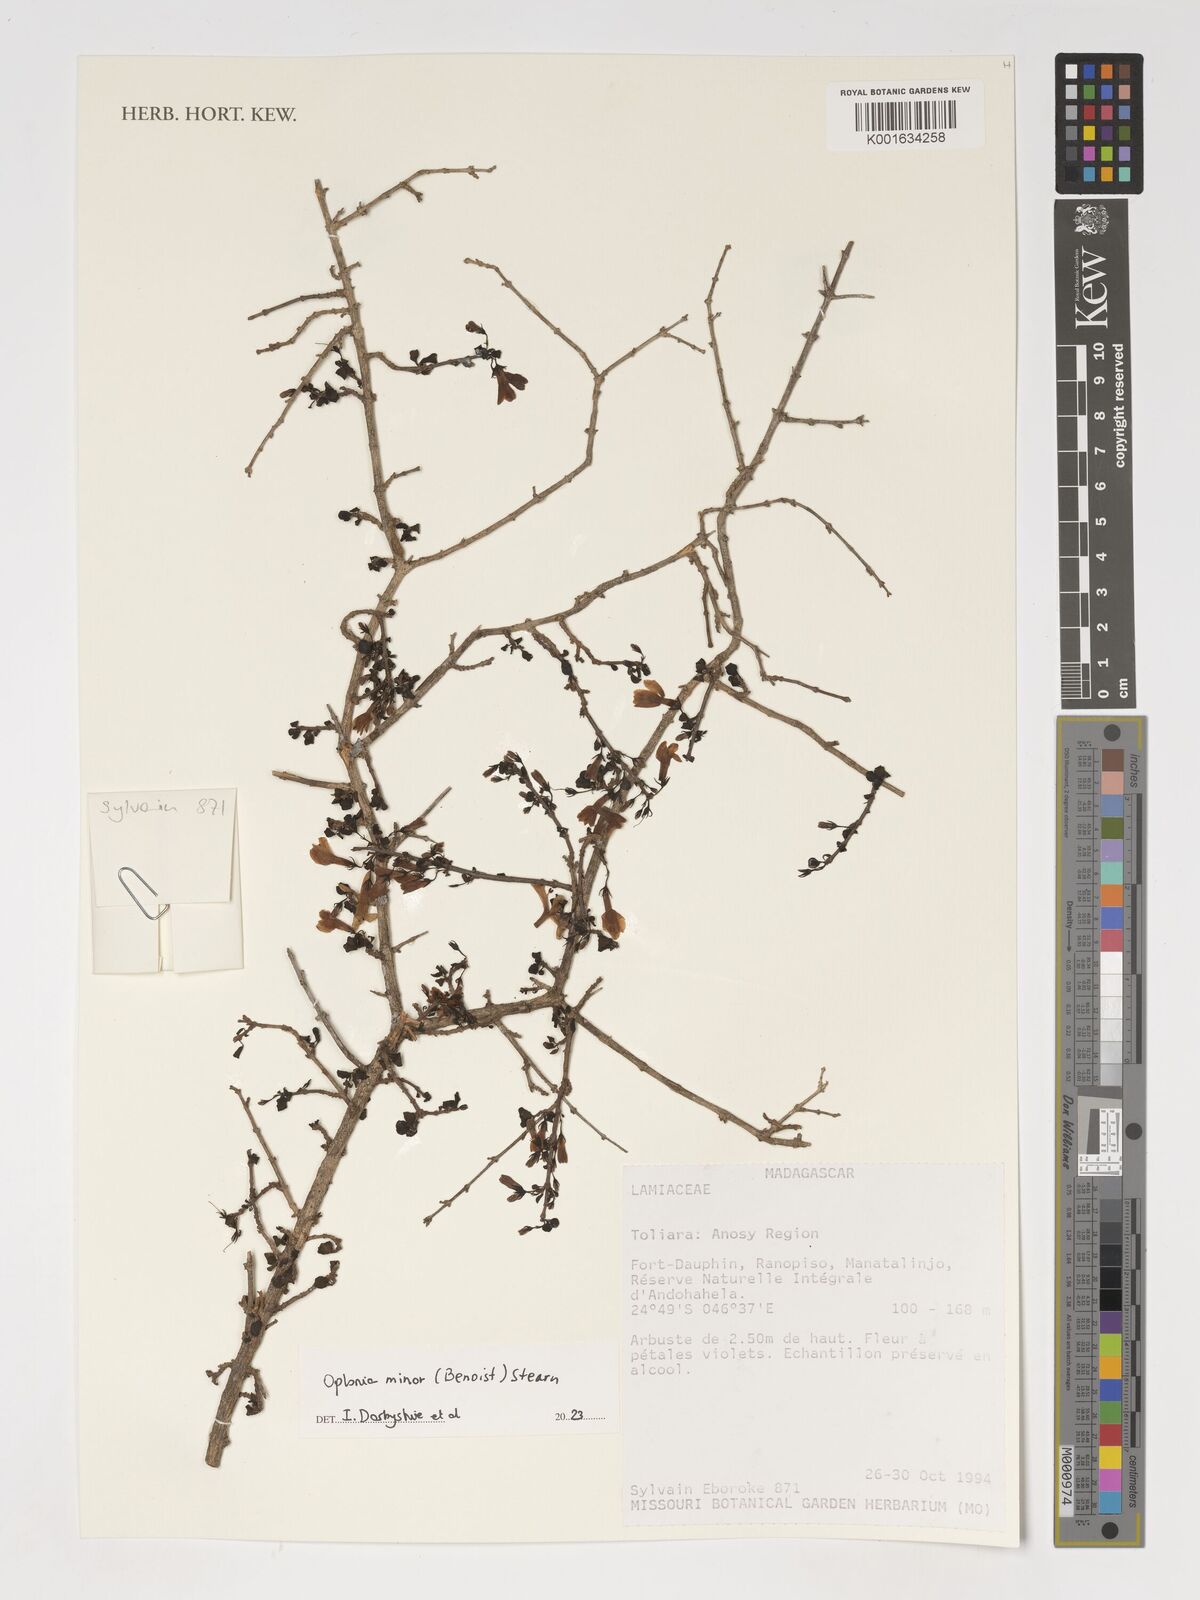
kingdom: Plantae
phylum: Tracheophyta
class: Magnoliopsida
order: Lamiales
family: Acanthaceae
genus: Oplonia
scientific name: Oplonia minor
